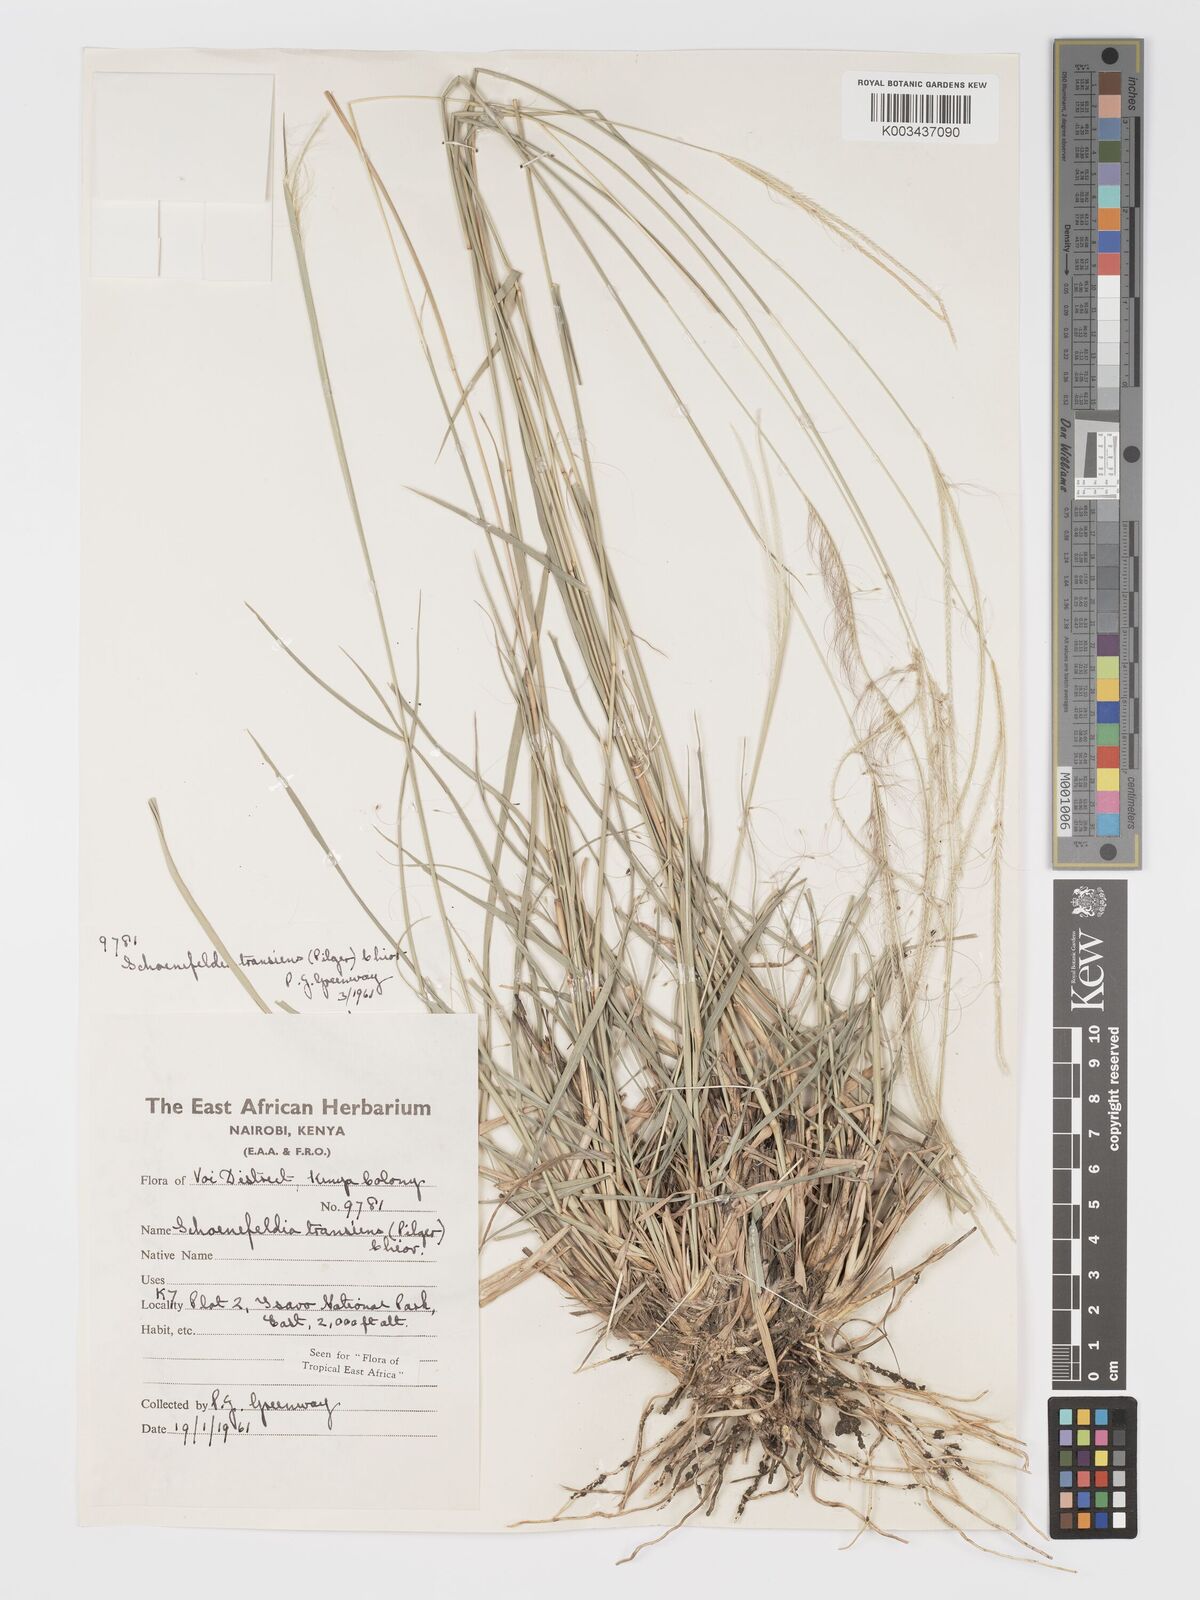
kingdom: Plantae
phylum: Tracheophyta
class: Liliopsida
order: Poales
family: Poaceae
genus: Schoenefeldia
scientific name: Schoenefeldia transiens
